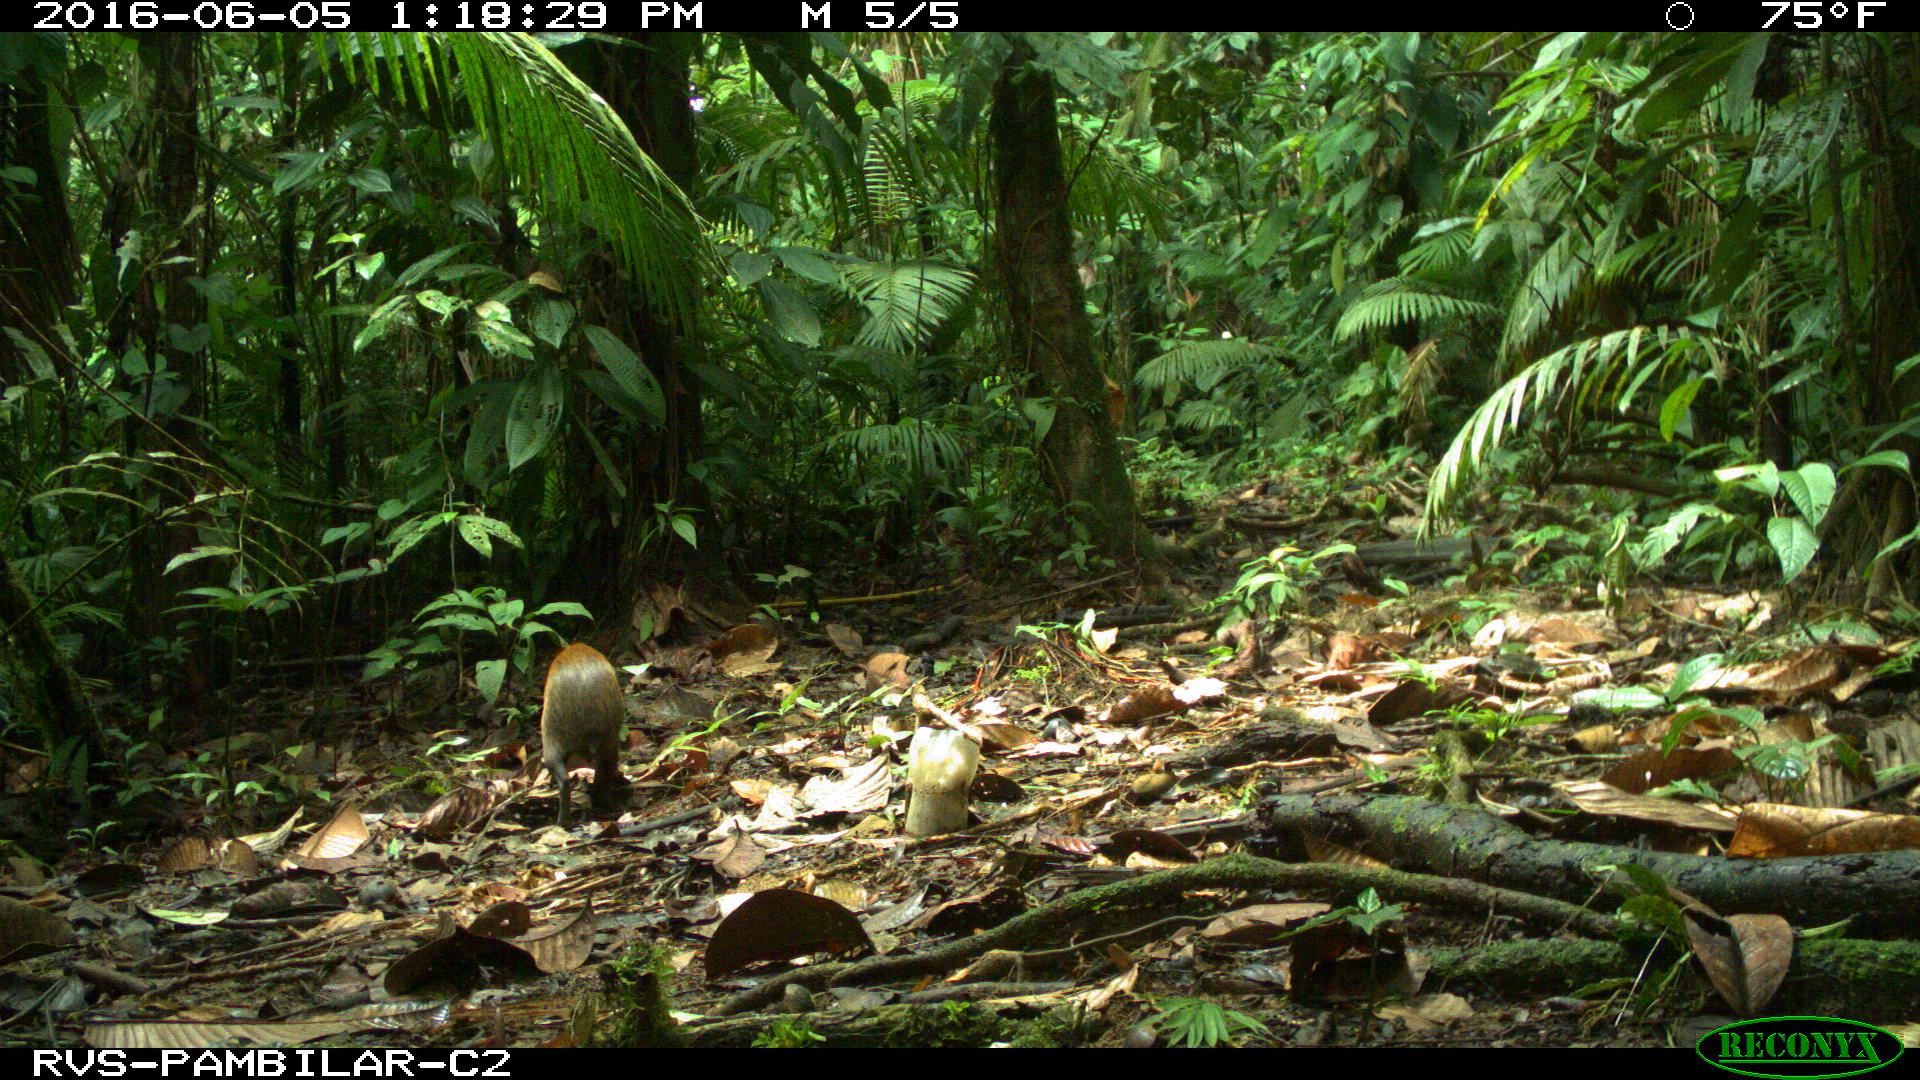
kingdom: Animalia
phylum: Chordata
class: Mammalia
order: Rodentia
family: Dasyproctidae
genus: Dasyprocta
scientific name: Dasyprocta punctata
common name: Central american agouti
